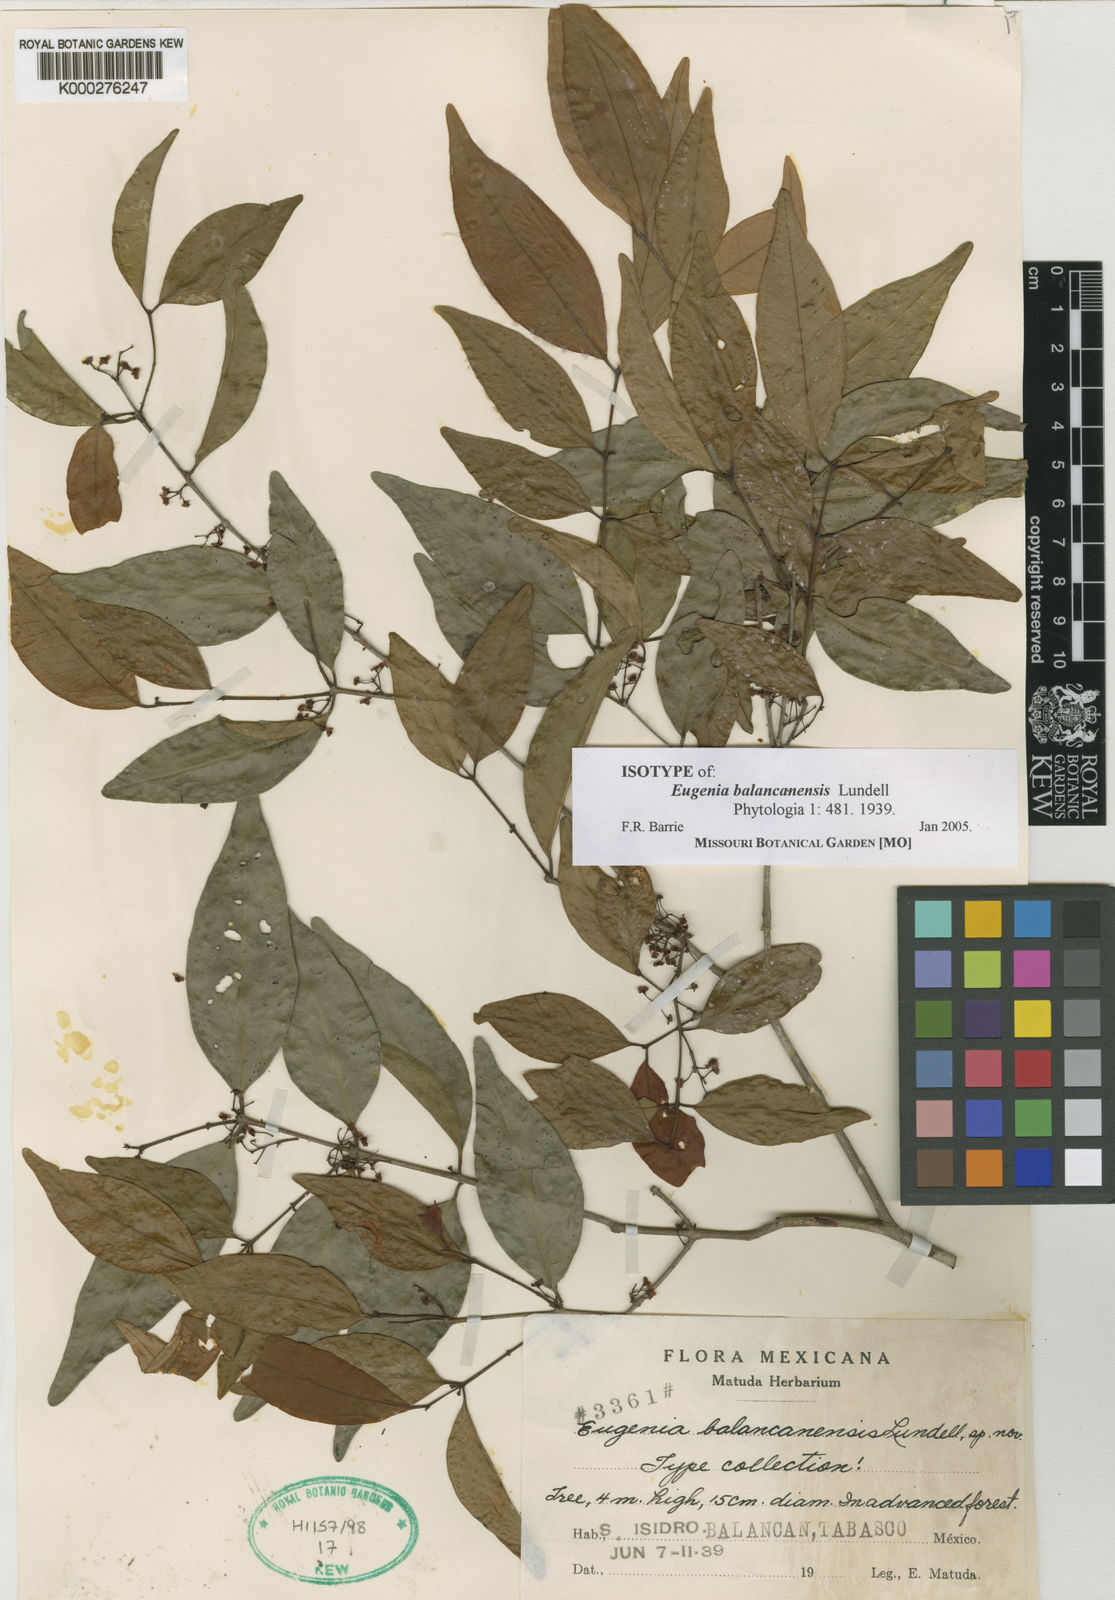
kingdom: Plantae
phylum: Tracheophyta
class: Magnoliopsida
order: Myrtales
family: Myrtaceae
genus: Eugenia
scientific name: Eugenia oerstediana
